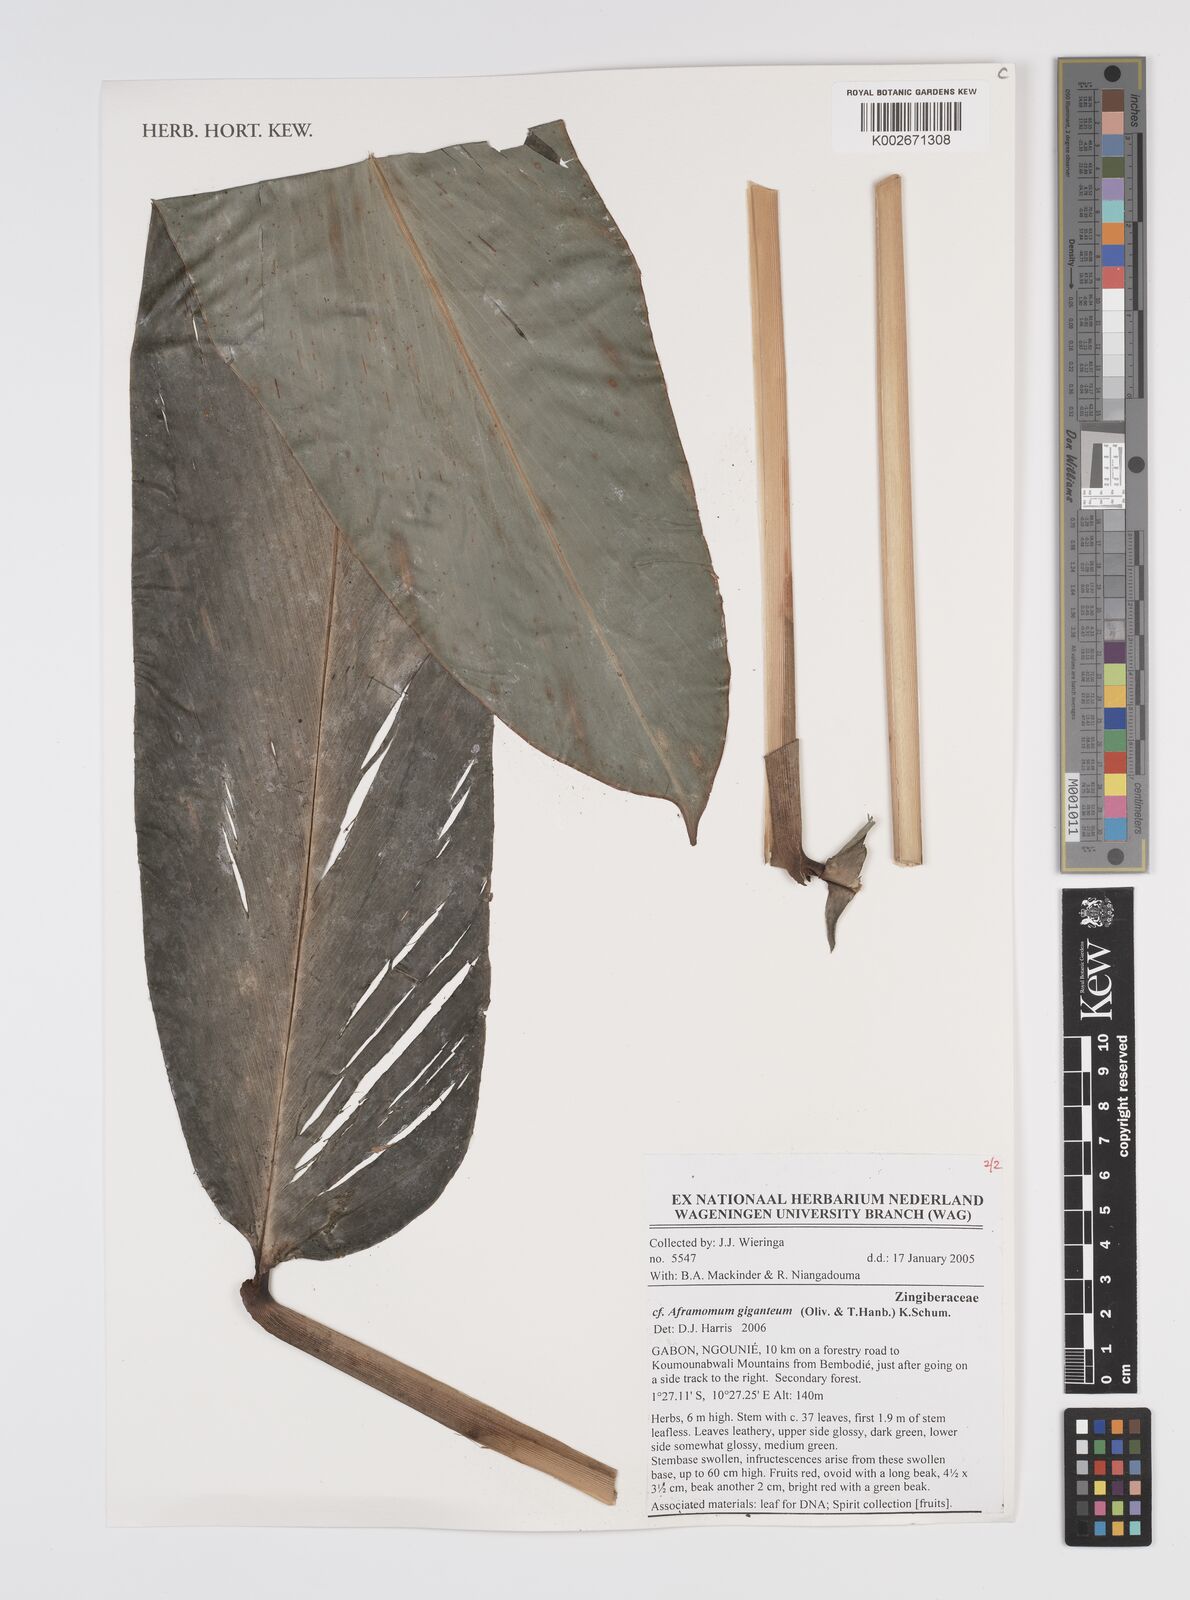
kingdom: Plantae
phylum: Tracheophyta
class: Liliopsida
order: Zingiberales
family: Zingiberaceae
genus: Aframomum
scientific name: Aframomum giganteum
